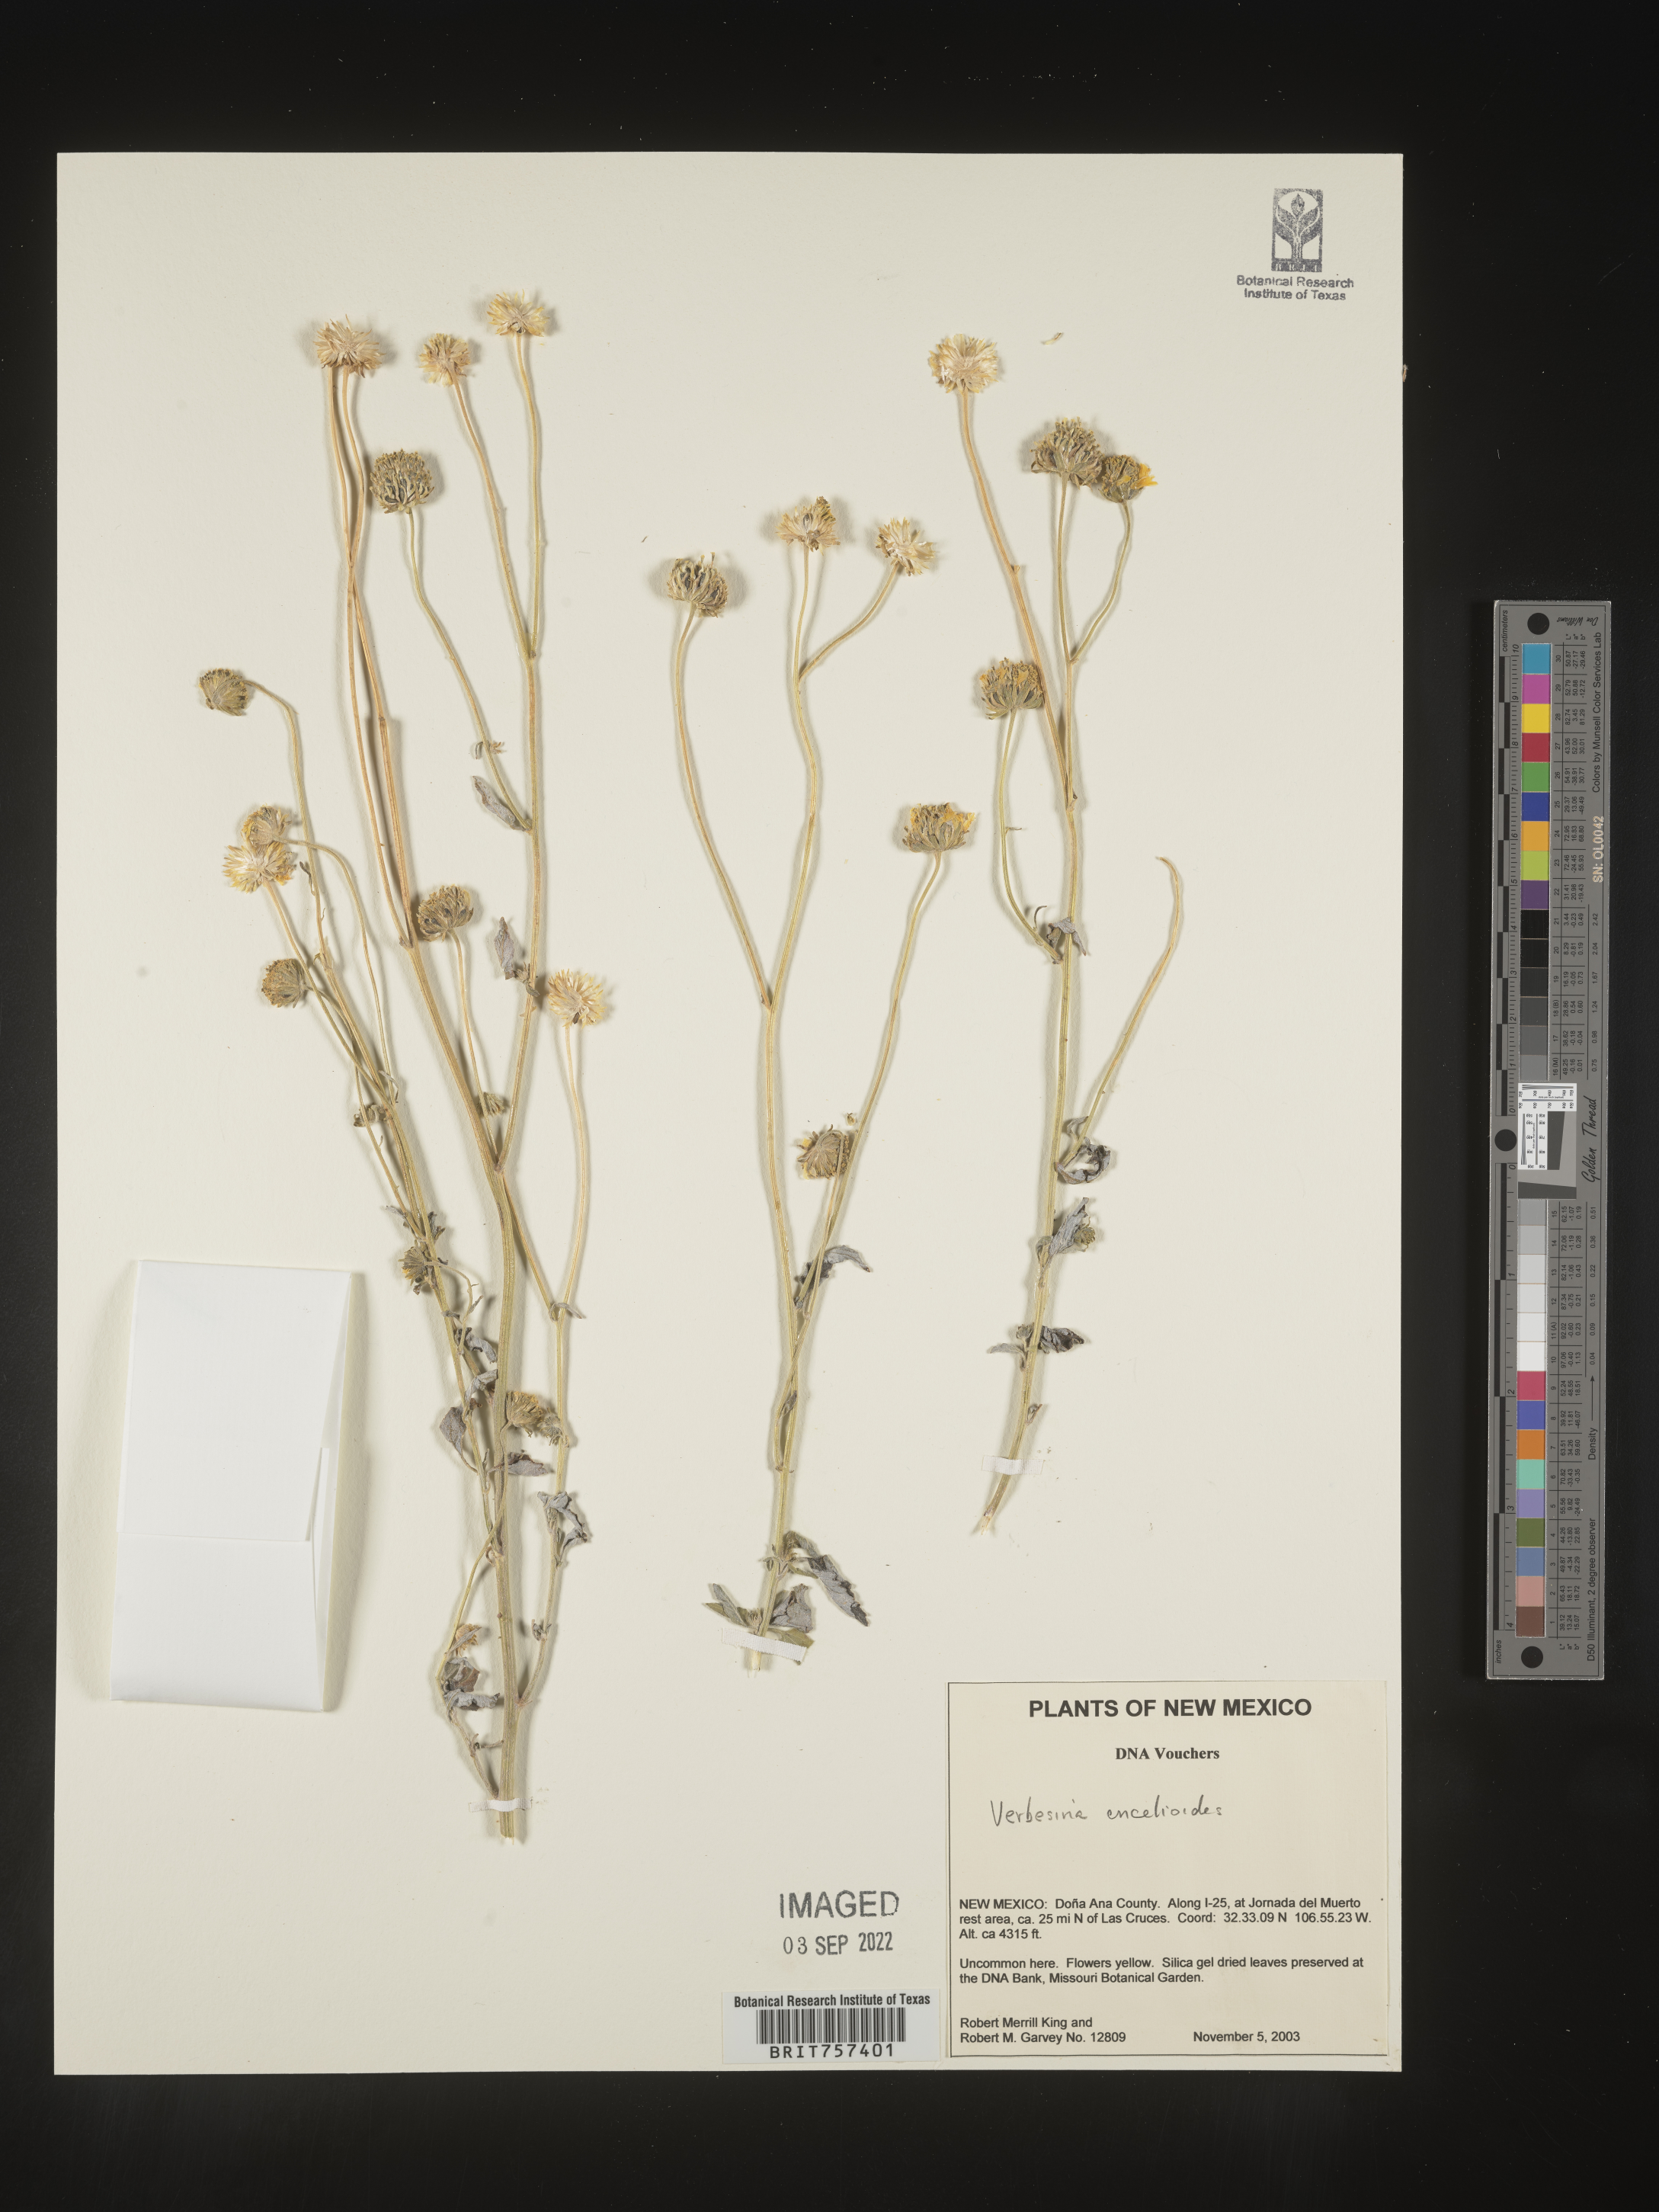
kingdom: Plantae
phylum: Tracheophyta
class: Magnoliopsida
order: Asterales
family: Asteraceae
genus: Verbesina
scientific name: Verbesina encelioides
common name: Golden crownbeard
